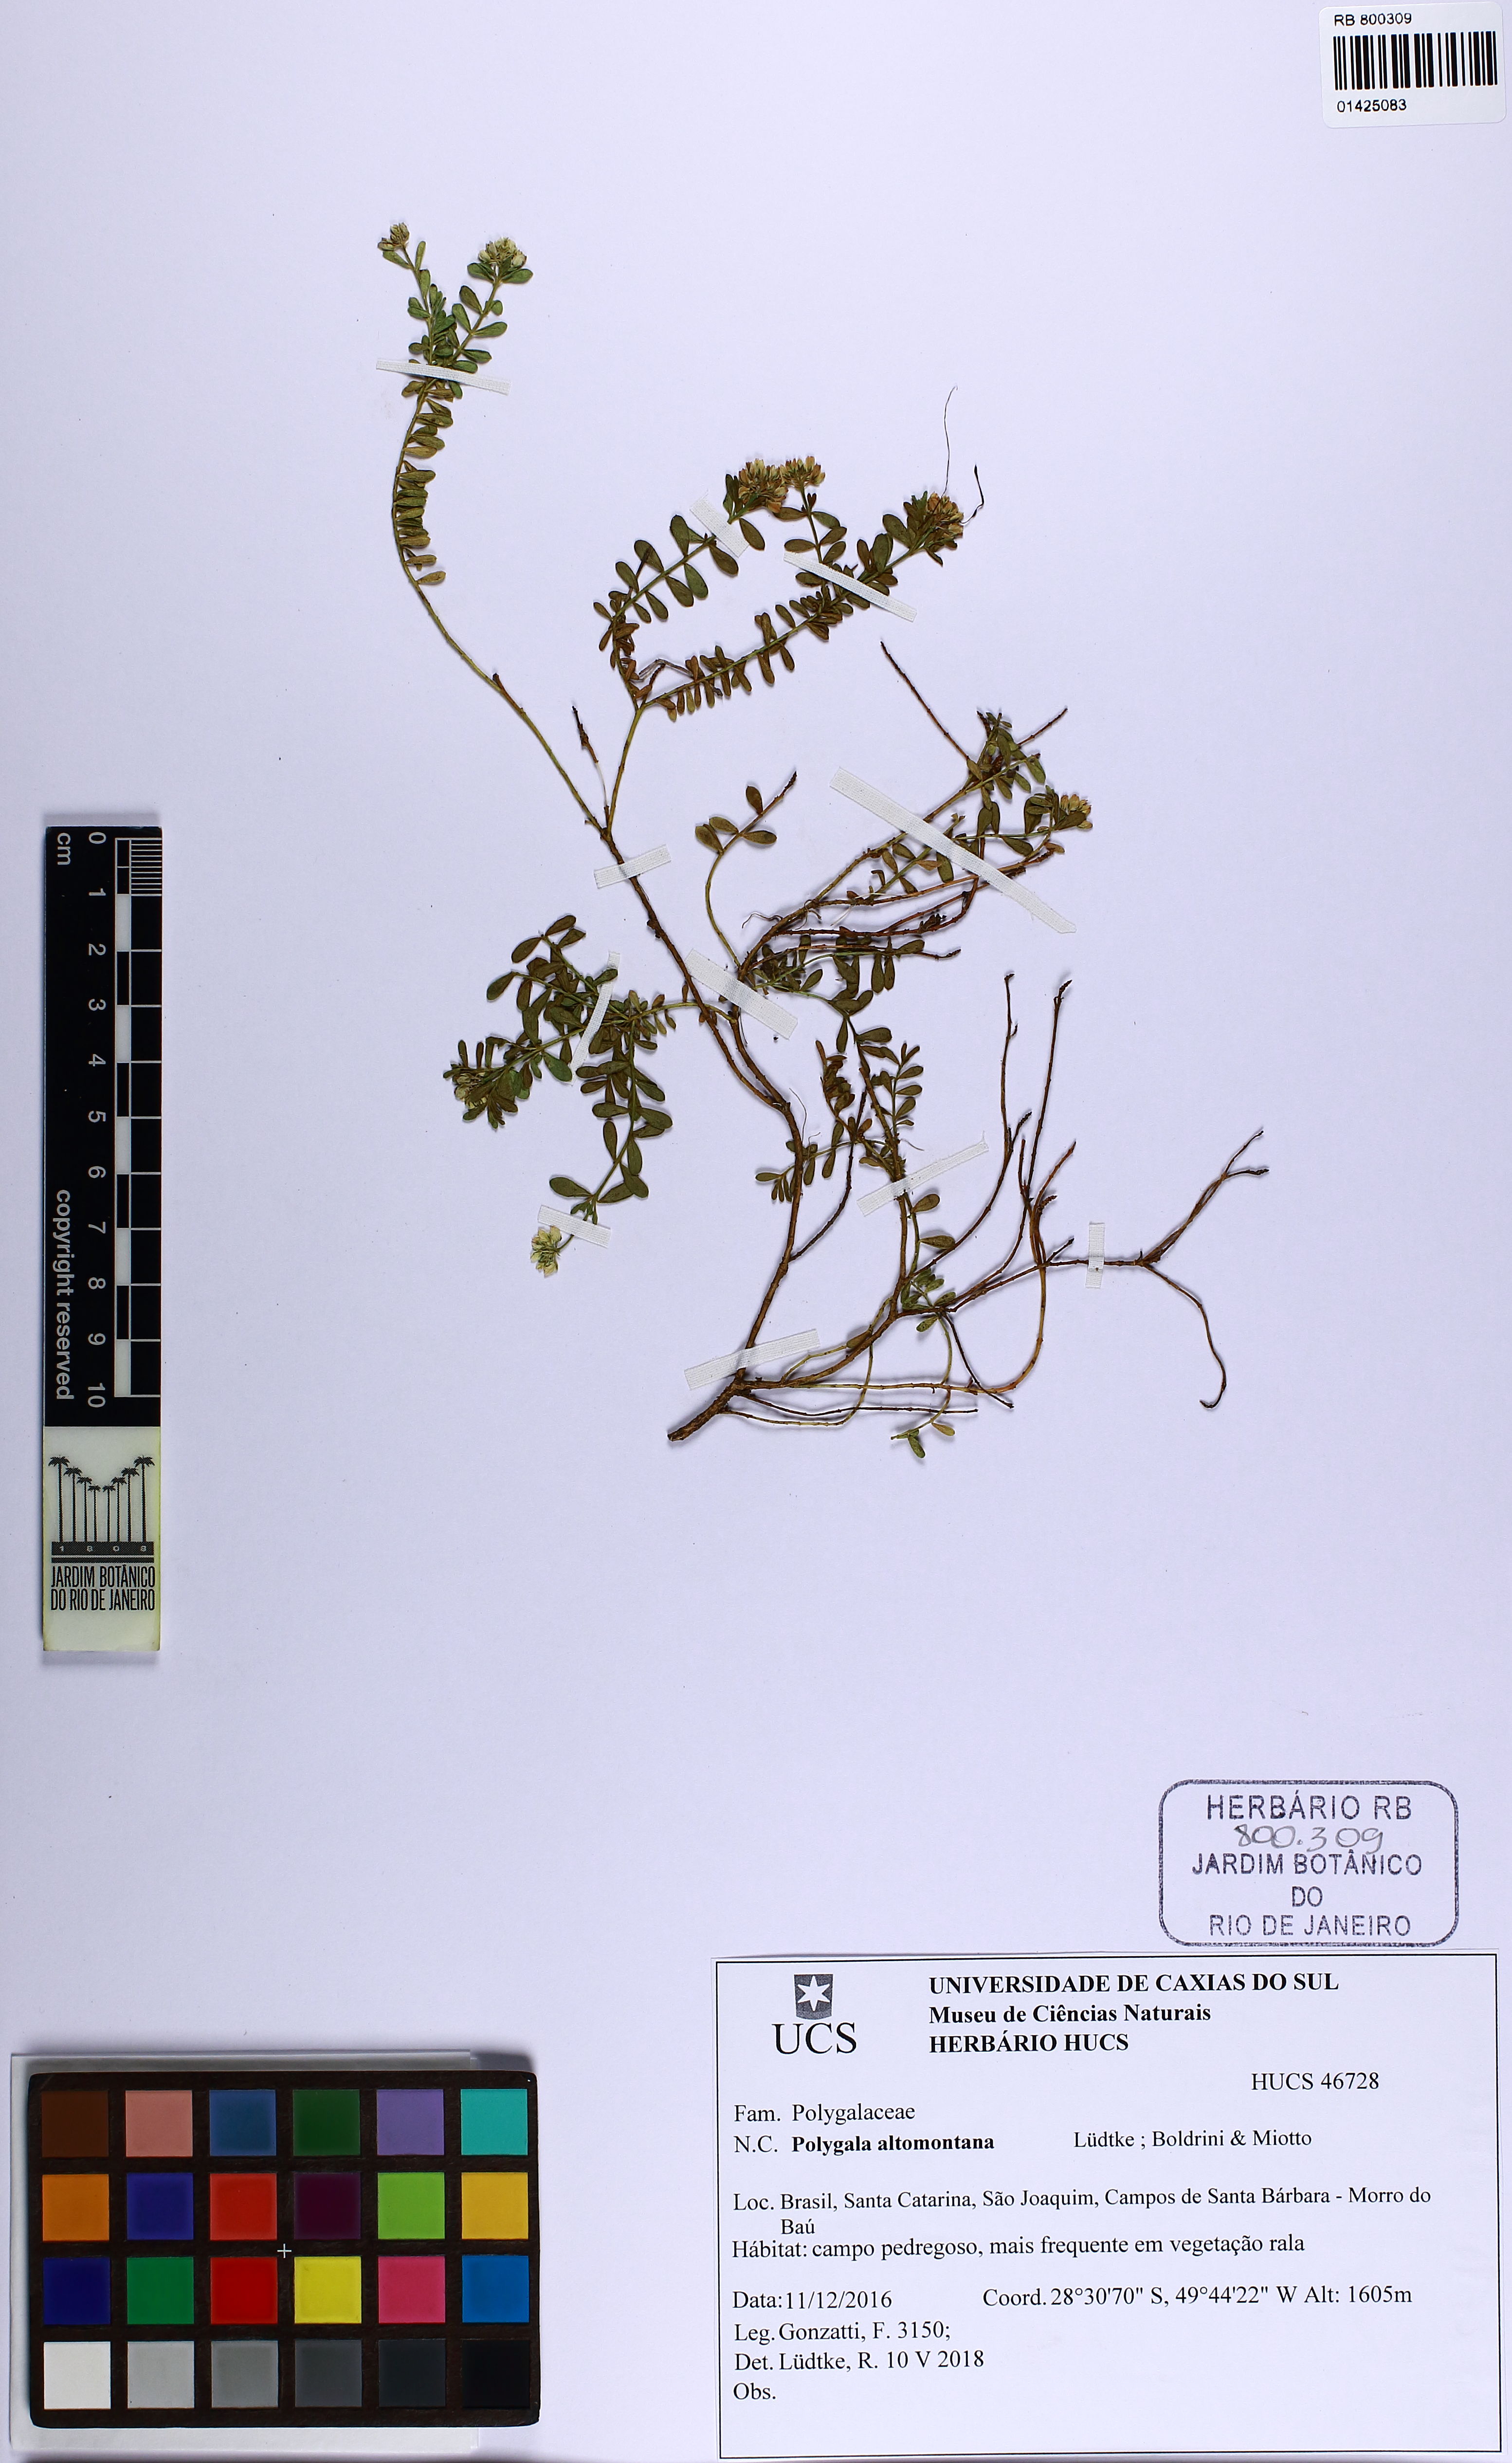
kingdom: Plantae
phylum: Tracheophyta
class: Magnoliopsida
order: Fabales
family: Polygalaceae
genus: Polygala
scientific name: Polygala altomontana
